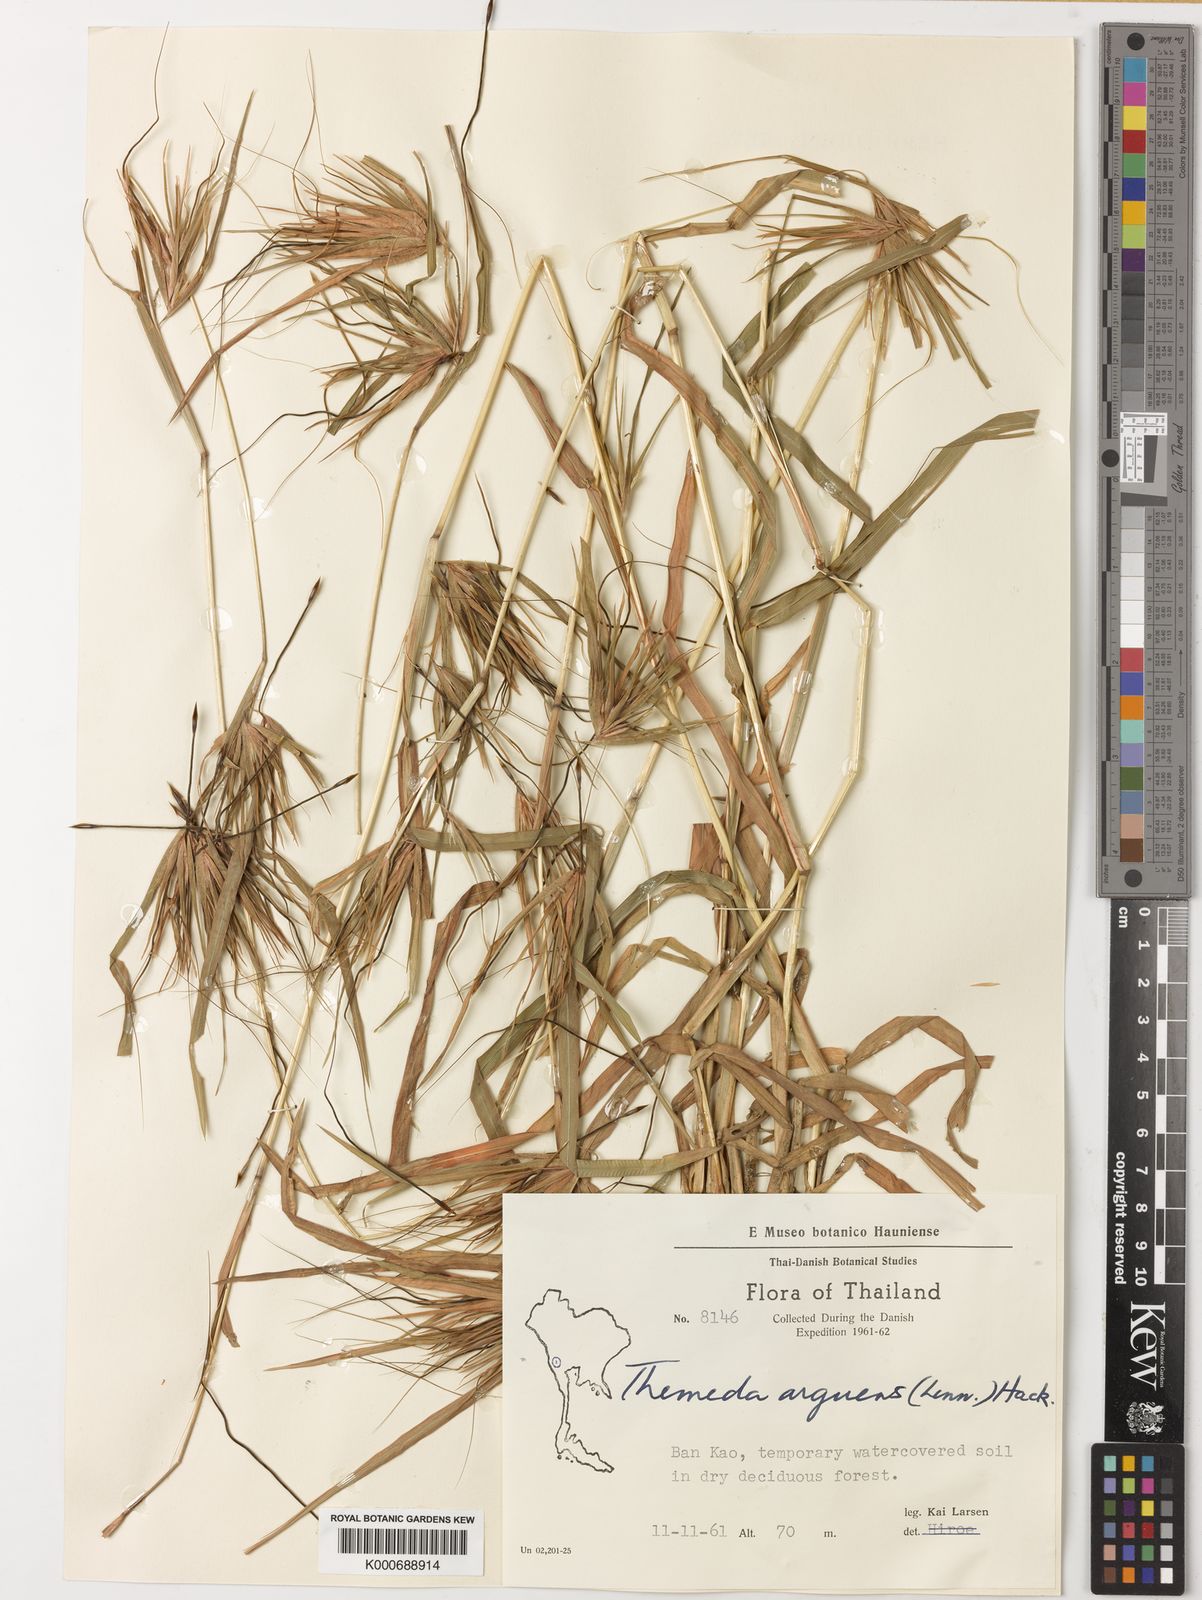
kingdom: Plantae
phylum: Tracheophyta
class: Liliopsida
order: Poales
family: Poaceae
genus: Themeda
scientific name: Themeda arguens
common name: Christmas grass
